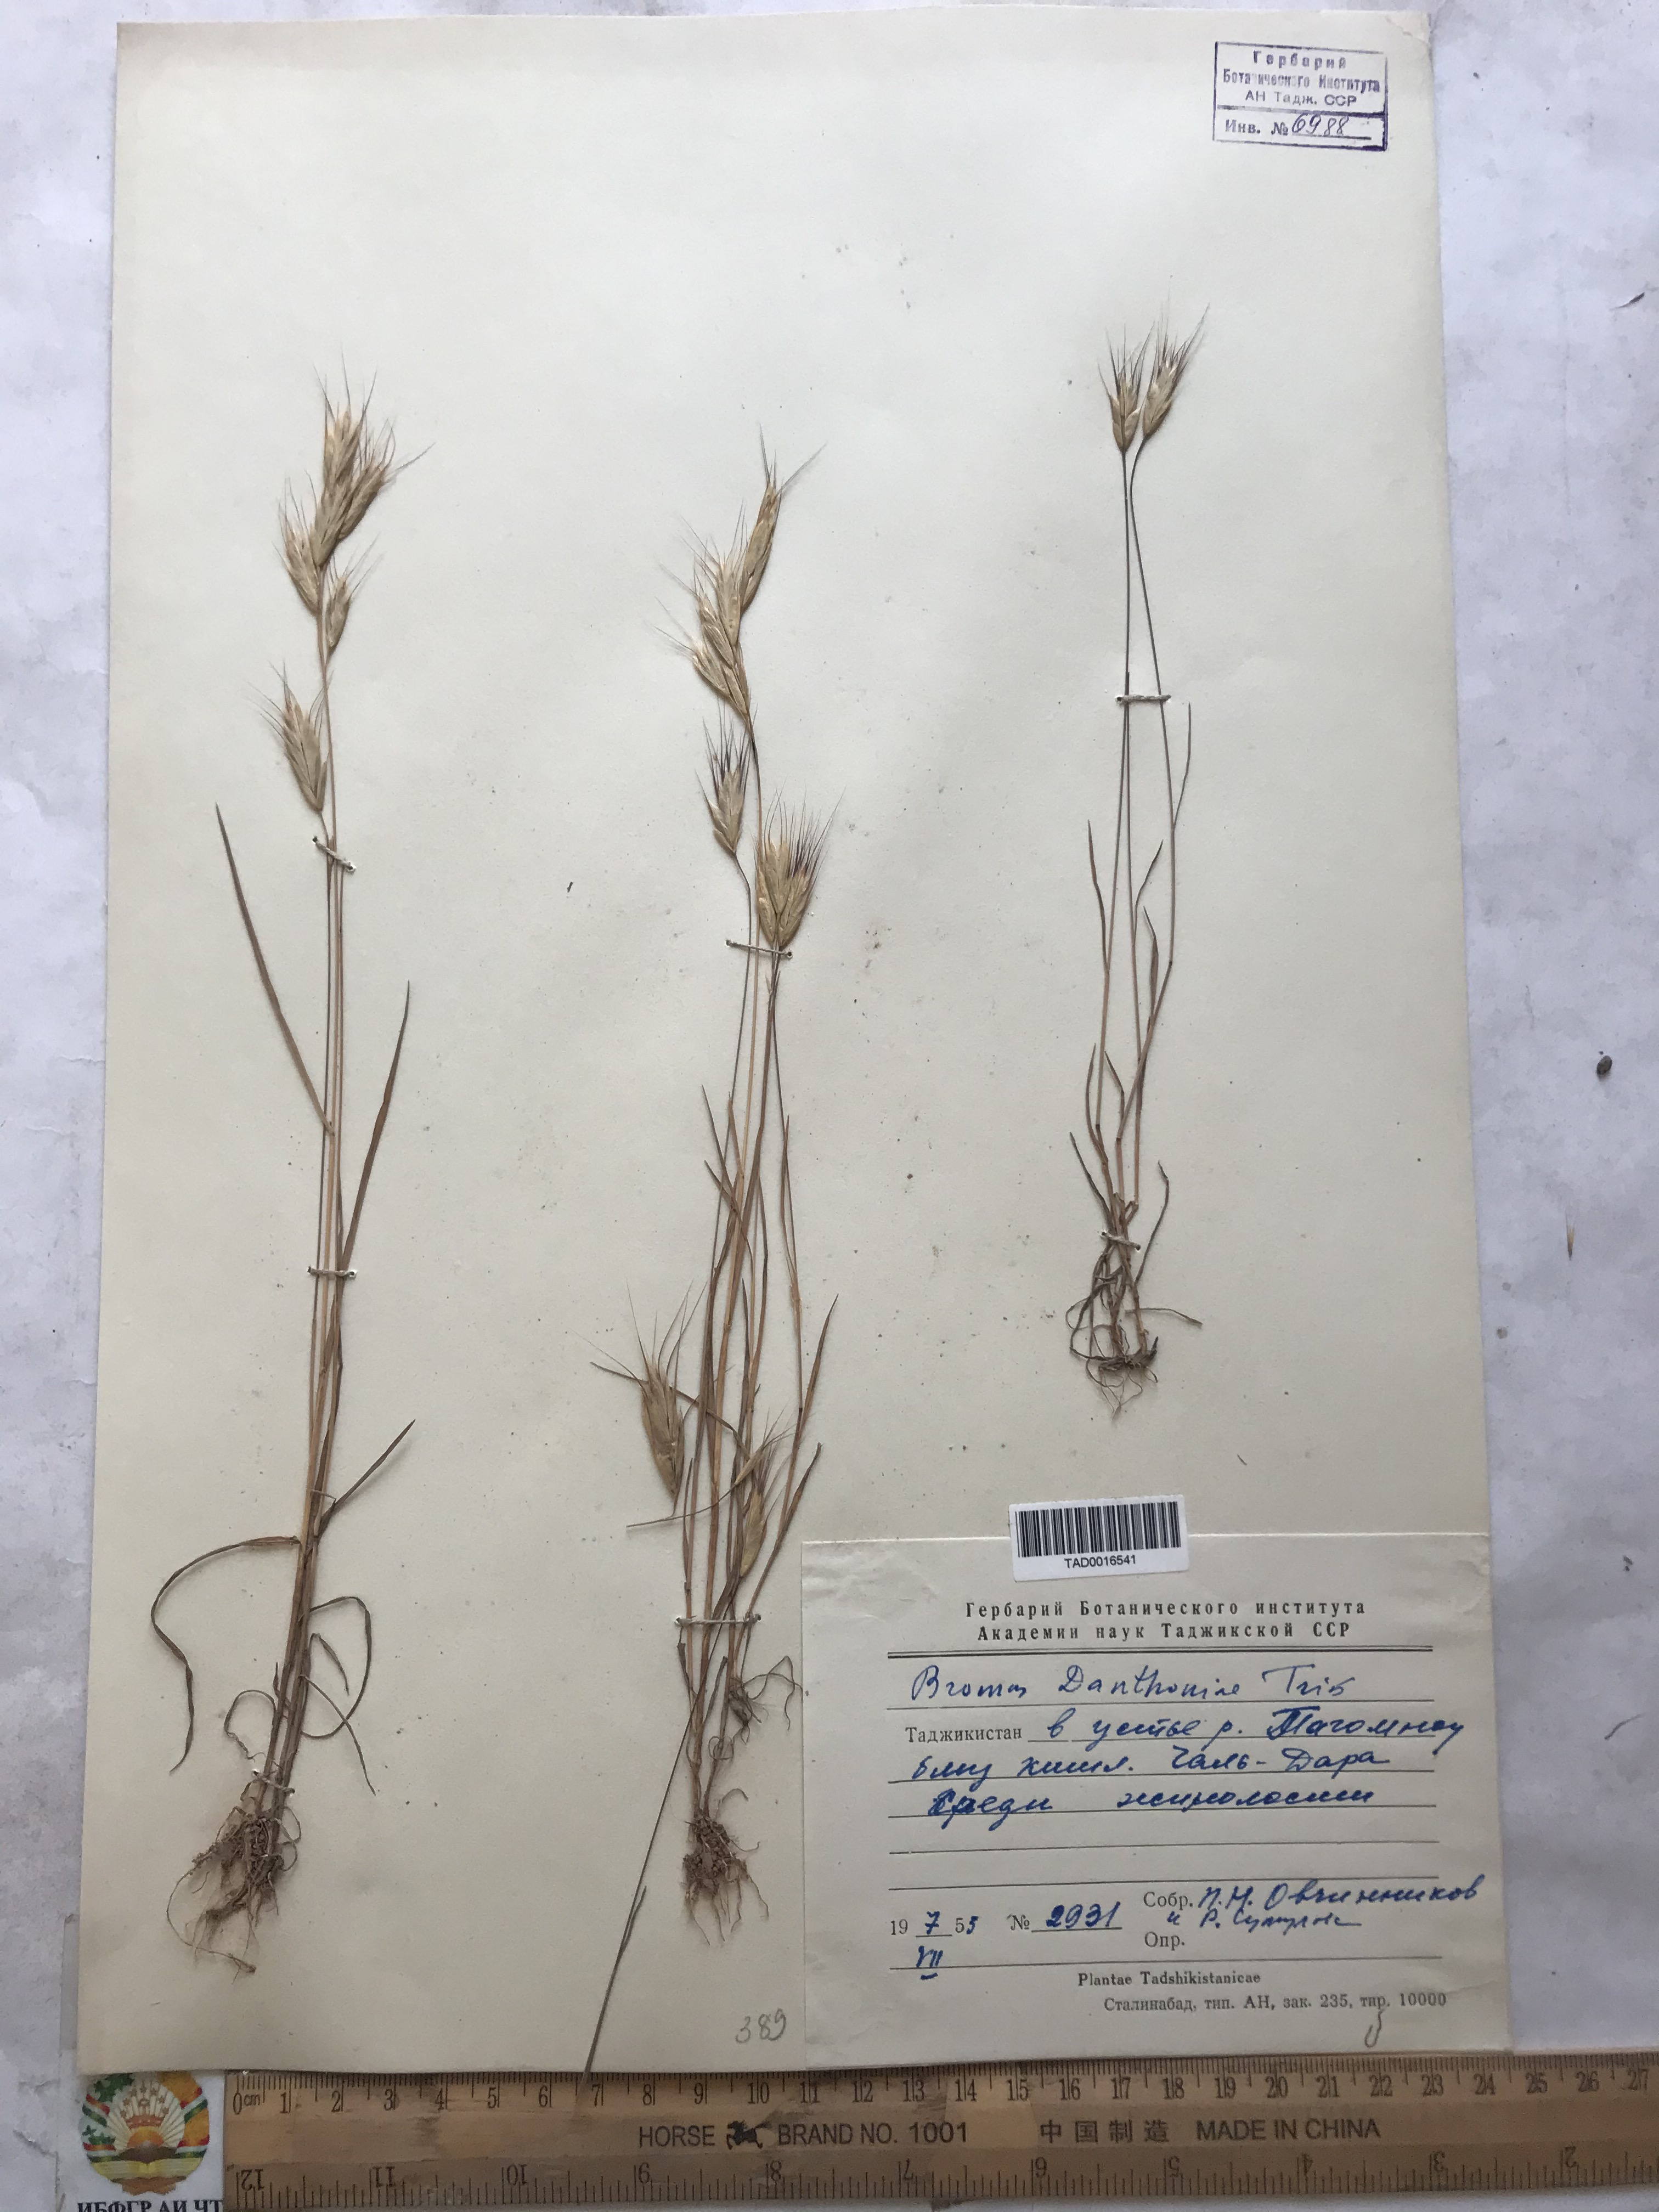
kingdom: Plantae
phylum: Tracheophyta
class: Liliopsida
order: Poales
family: Poaceae
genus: Bromus
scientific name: Bromus danthoniae
